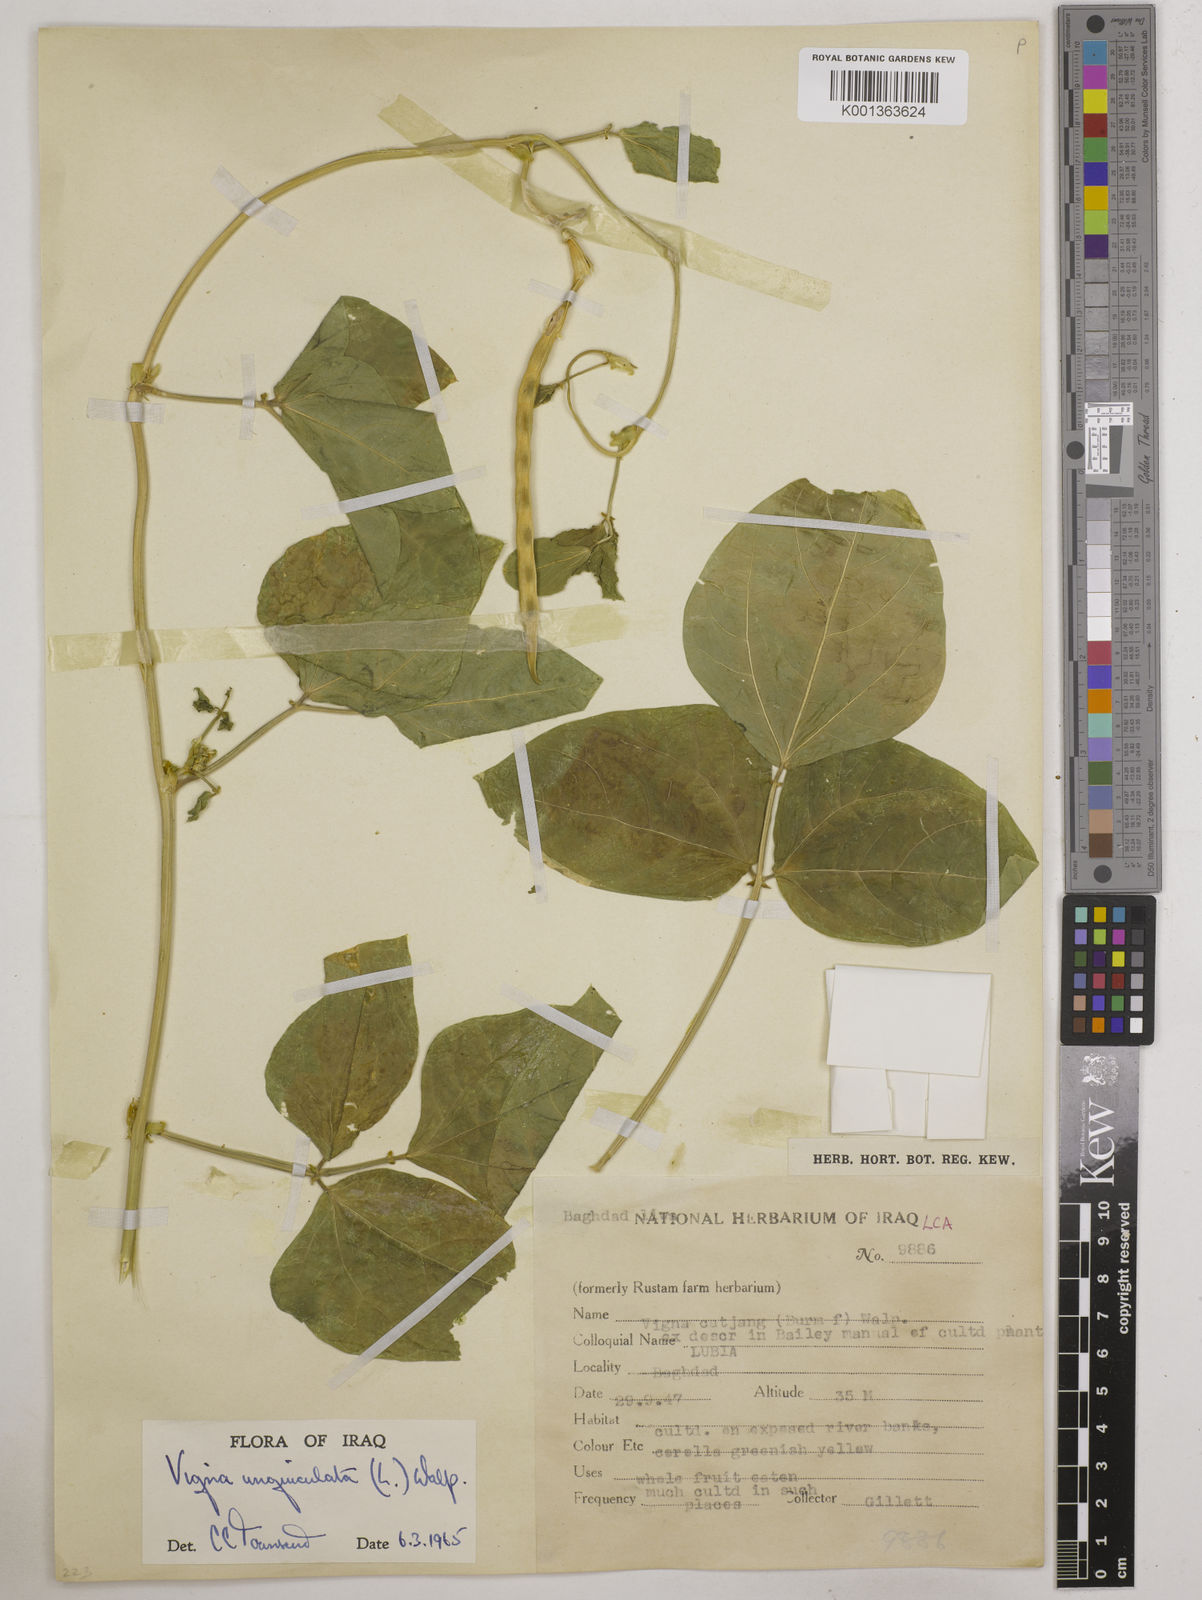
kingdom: Plantae
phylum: Tracheophyta
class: Magnoliopsida
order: Fabales
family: Fabaceae
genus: Vigna
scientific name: Vigna unguiculata
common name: Cowpea
